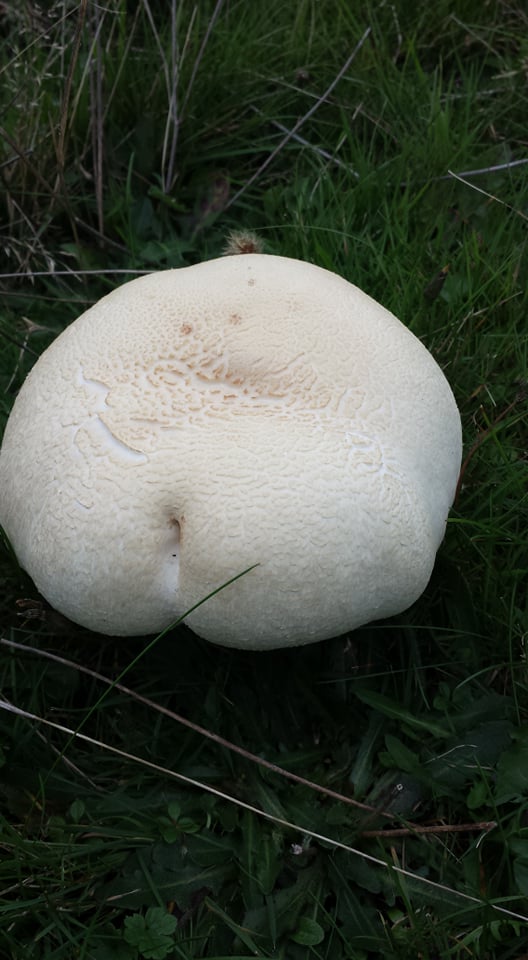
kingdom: Fungi
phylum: Basidiomycota
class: Agaricomycetes
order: Agaricales
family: Agaricaceae
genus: Agaricus
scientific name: Agaricus crocodilinus
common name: landsby-champignon
